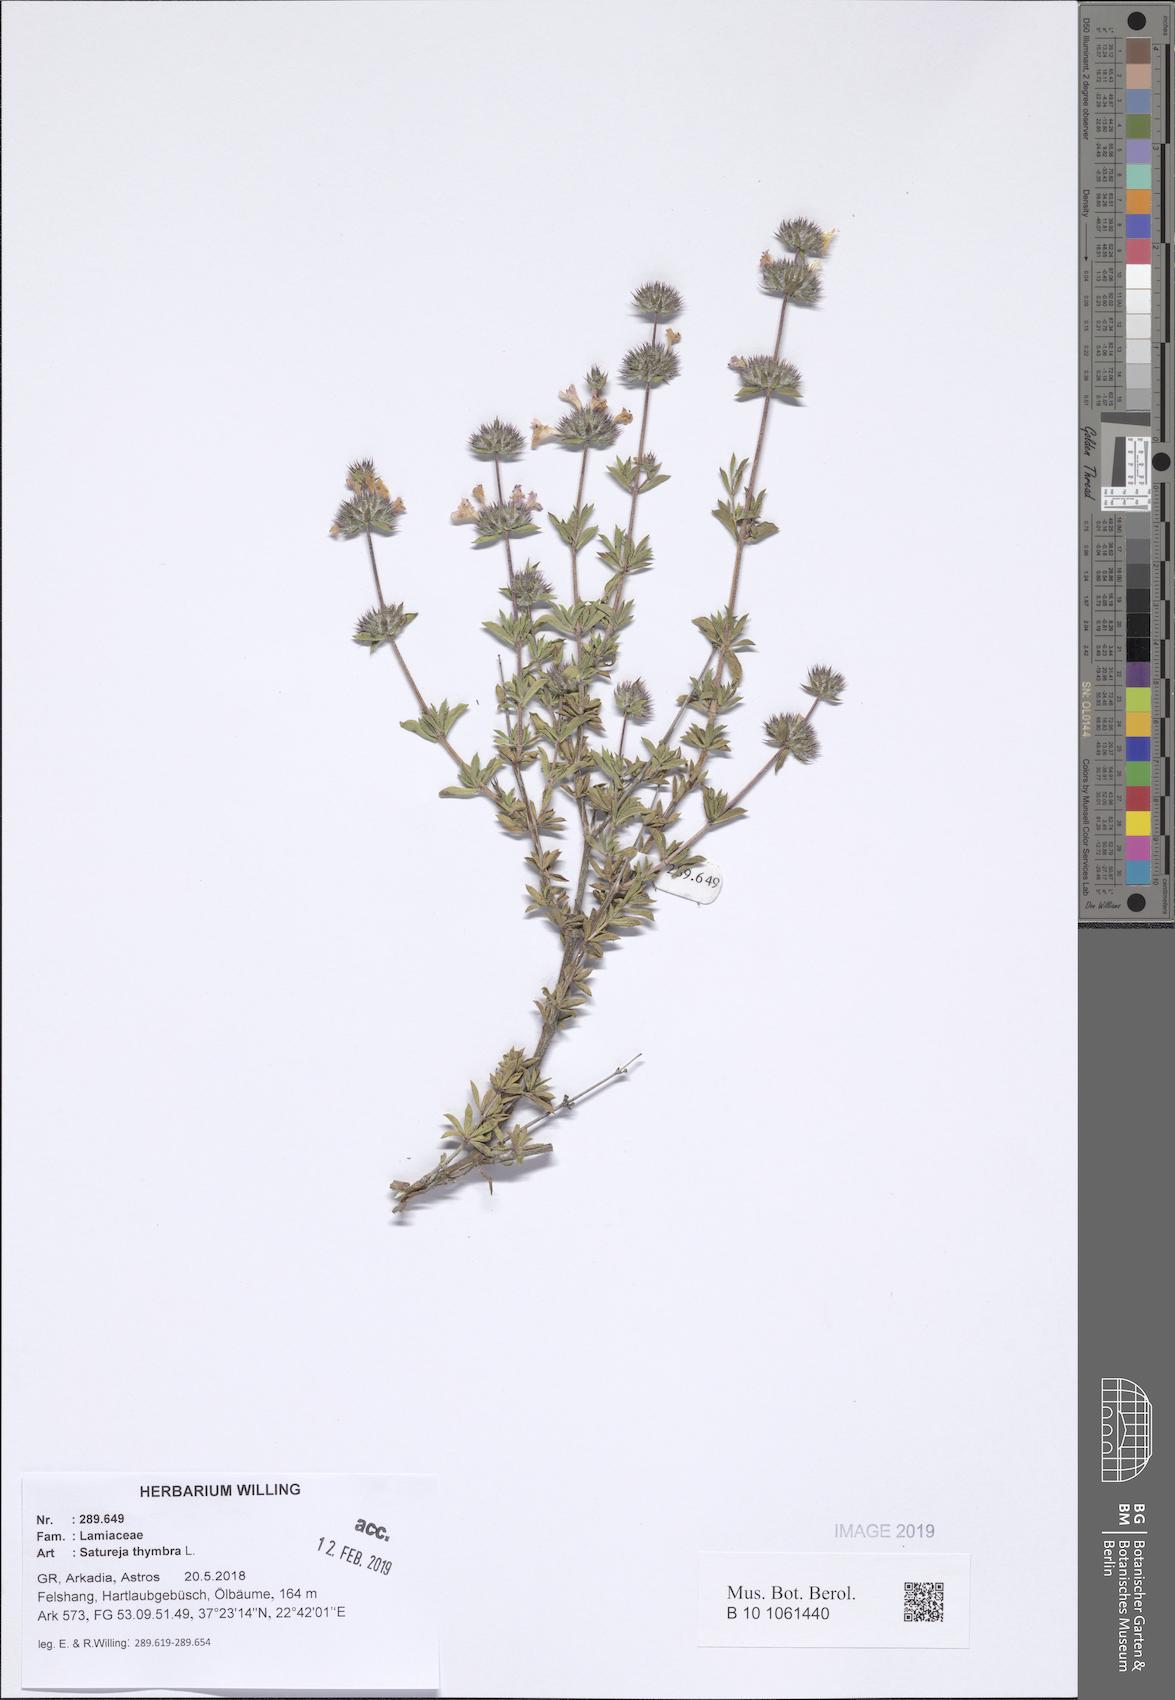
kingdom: Plantae
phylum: Tracheophyta
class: Magnoliopsida
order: Lamiales
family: Lamiaceae
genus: Satureja
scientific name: Satureja thymbra
